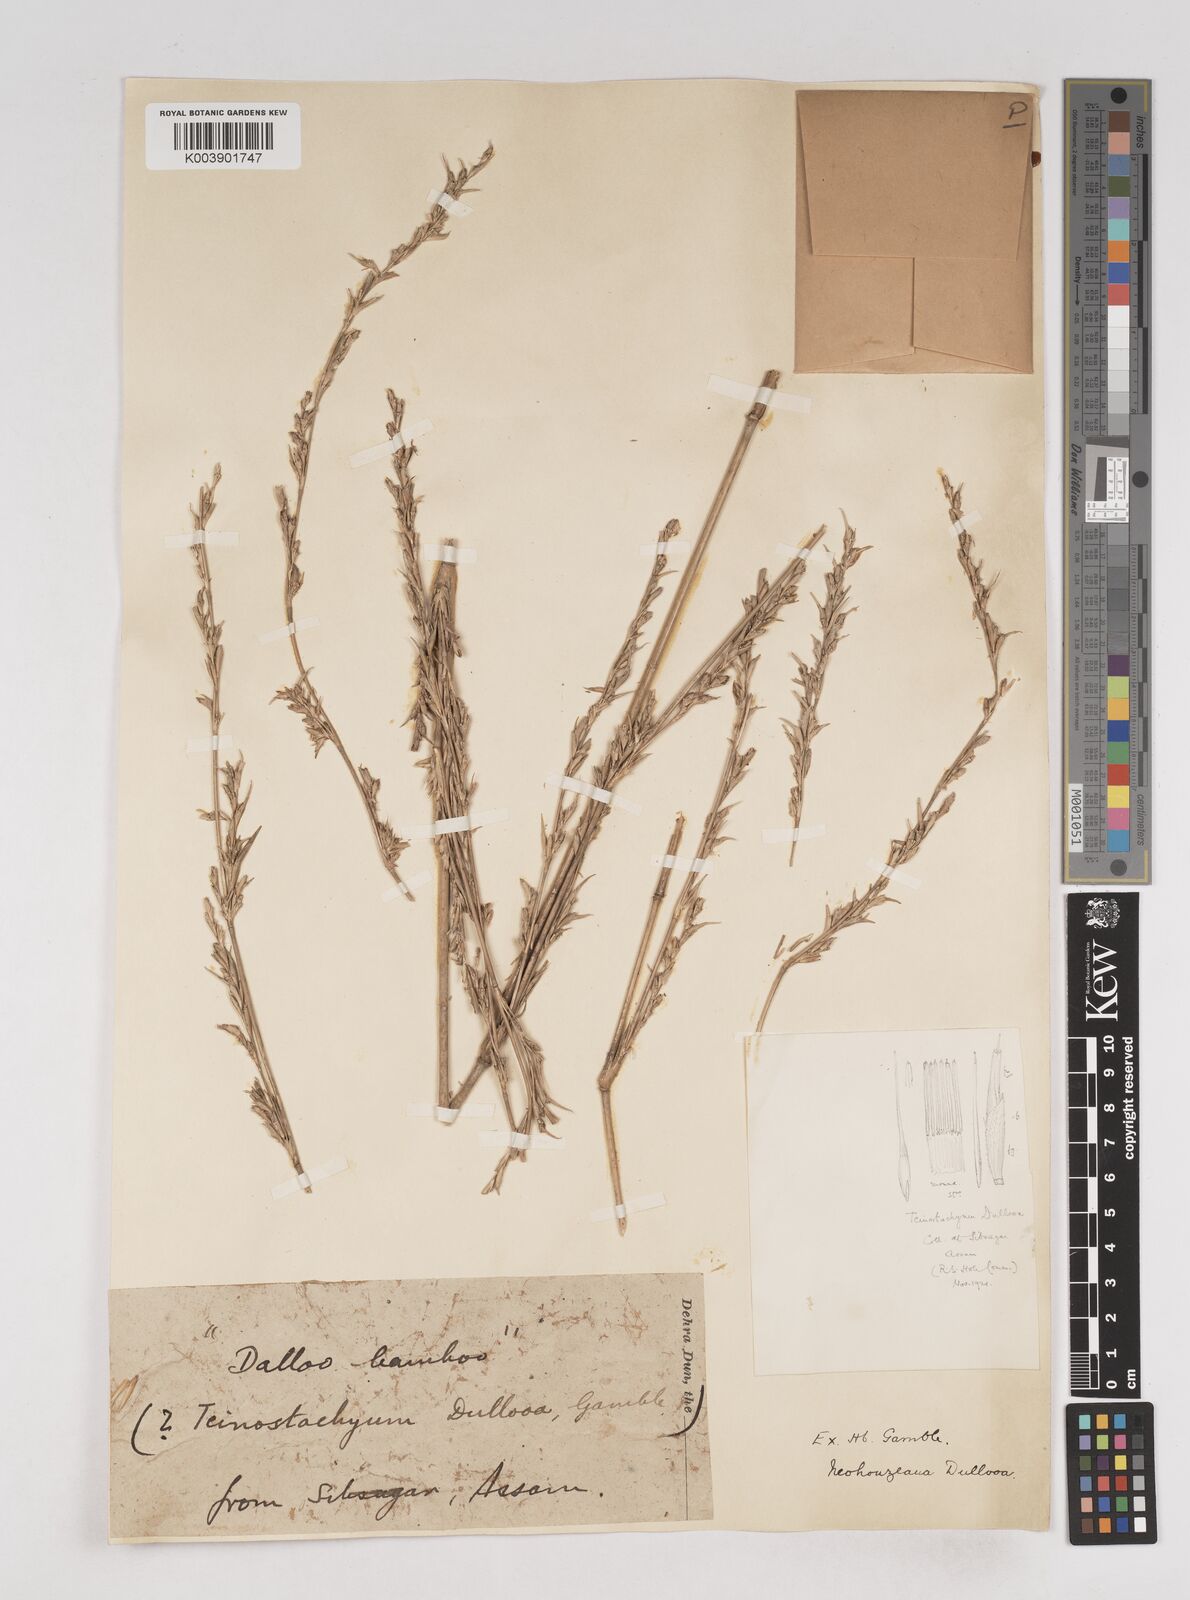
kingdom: Plantae
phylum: Tracheophyta
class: Liliopsida
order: Poales
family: Poaceae
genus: Schizostachyum
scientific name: Schizostachyum dullooa
